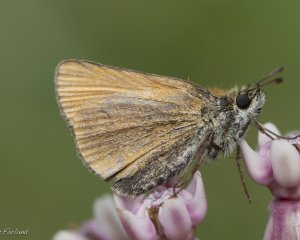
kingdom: Animalia
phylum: Arthropoda
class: Insecta
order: Lepidoptera
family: Hesperiidae
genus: Thymelicus
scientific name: Thymelicus lineola
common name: European Skipper
